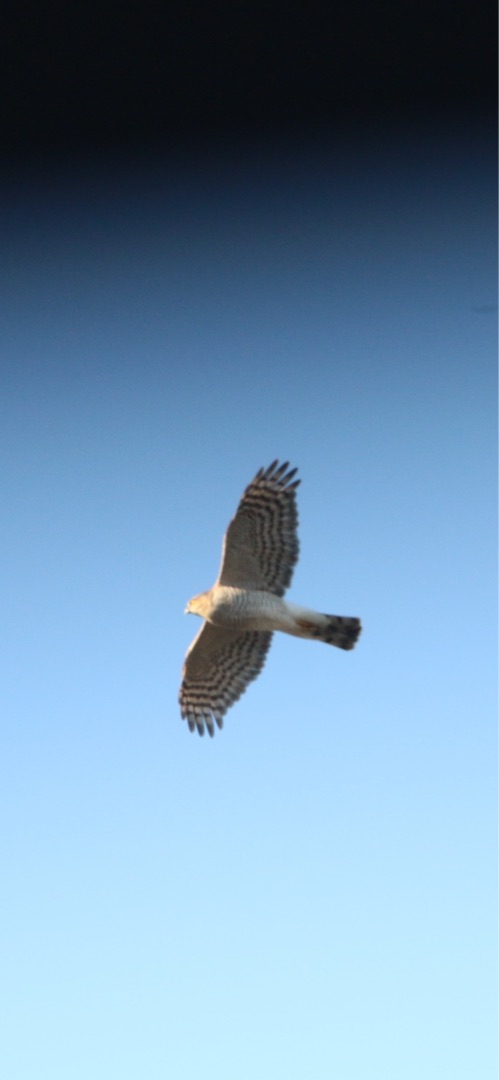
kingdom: Animalia
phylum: Chordata
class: Aves
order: Accipitriformes
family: Accipitridae
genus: Accipiter
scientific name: Accipiter gentilis
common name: Duehøg
